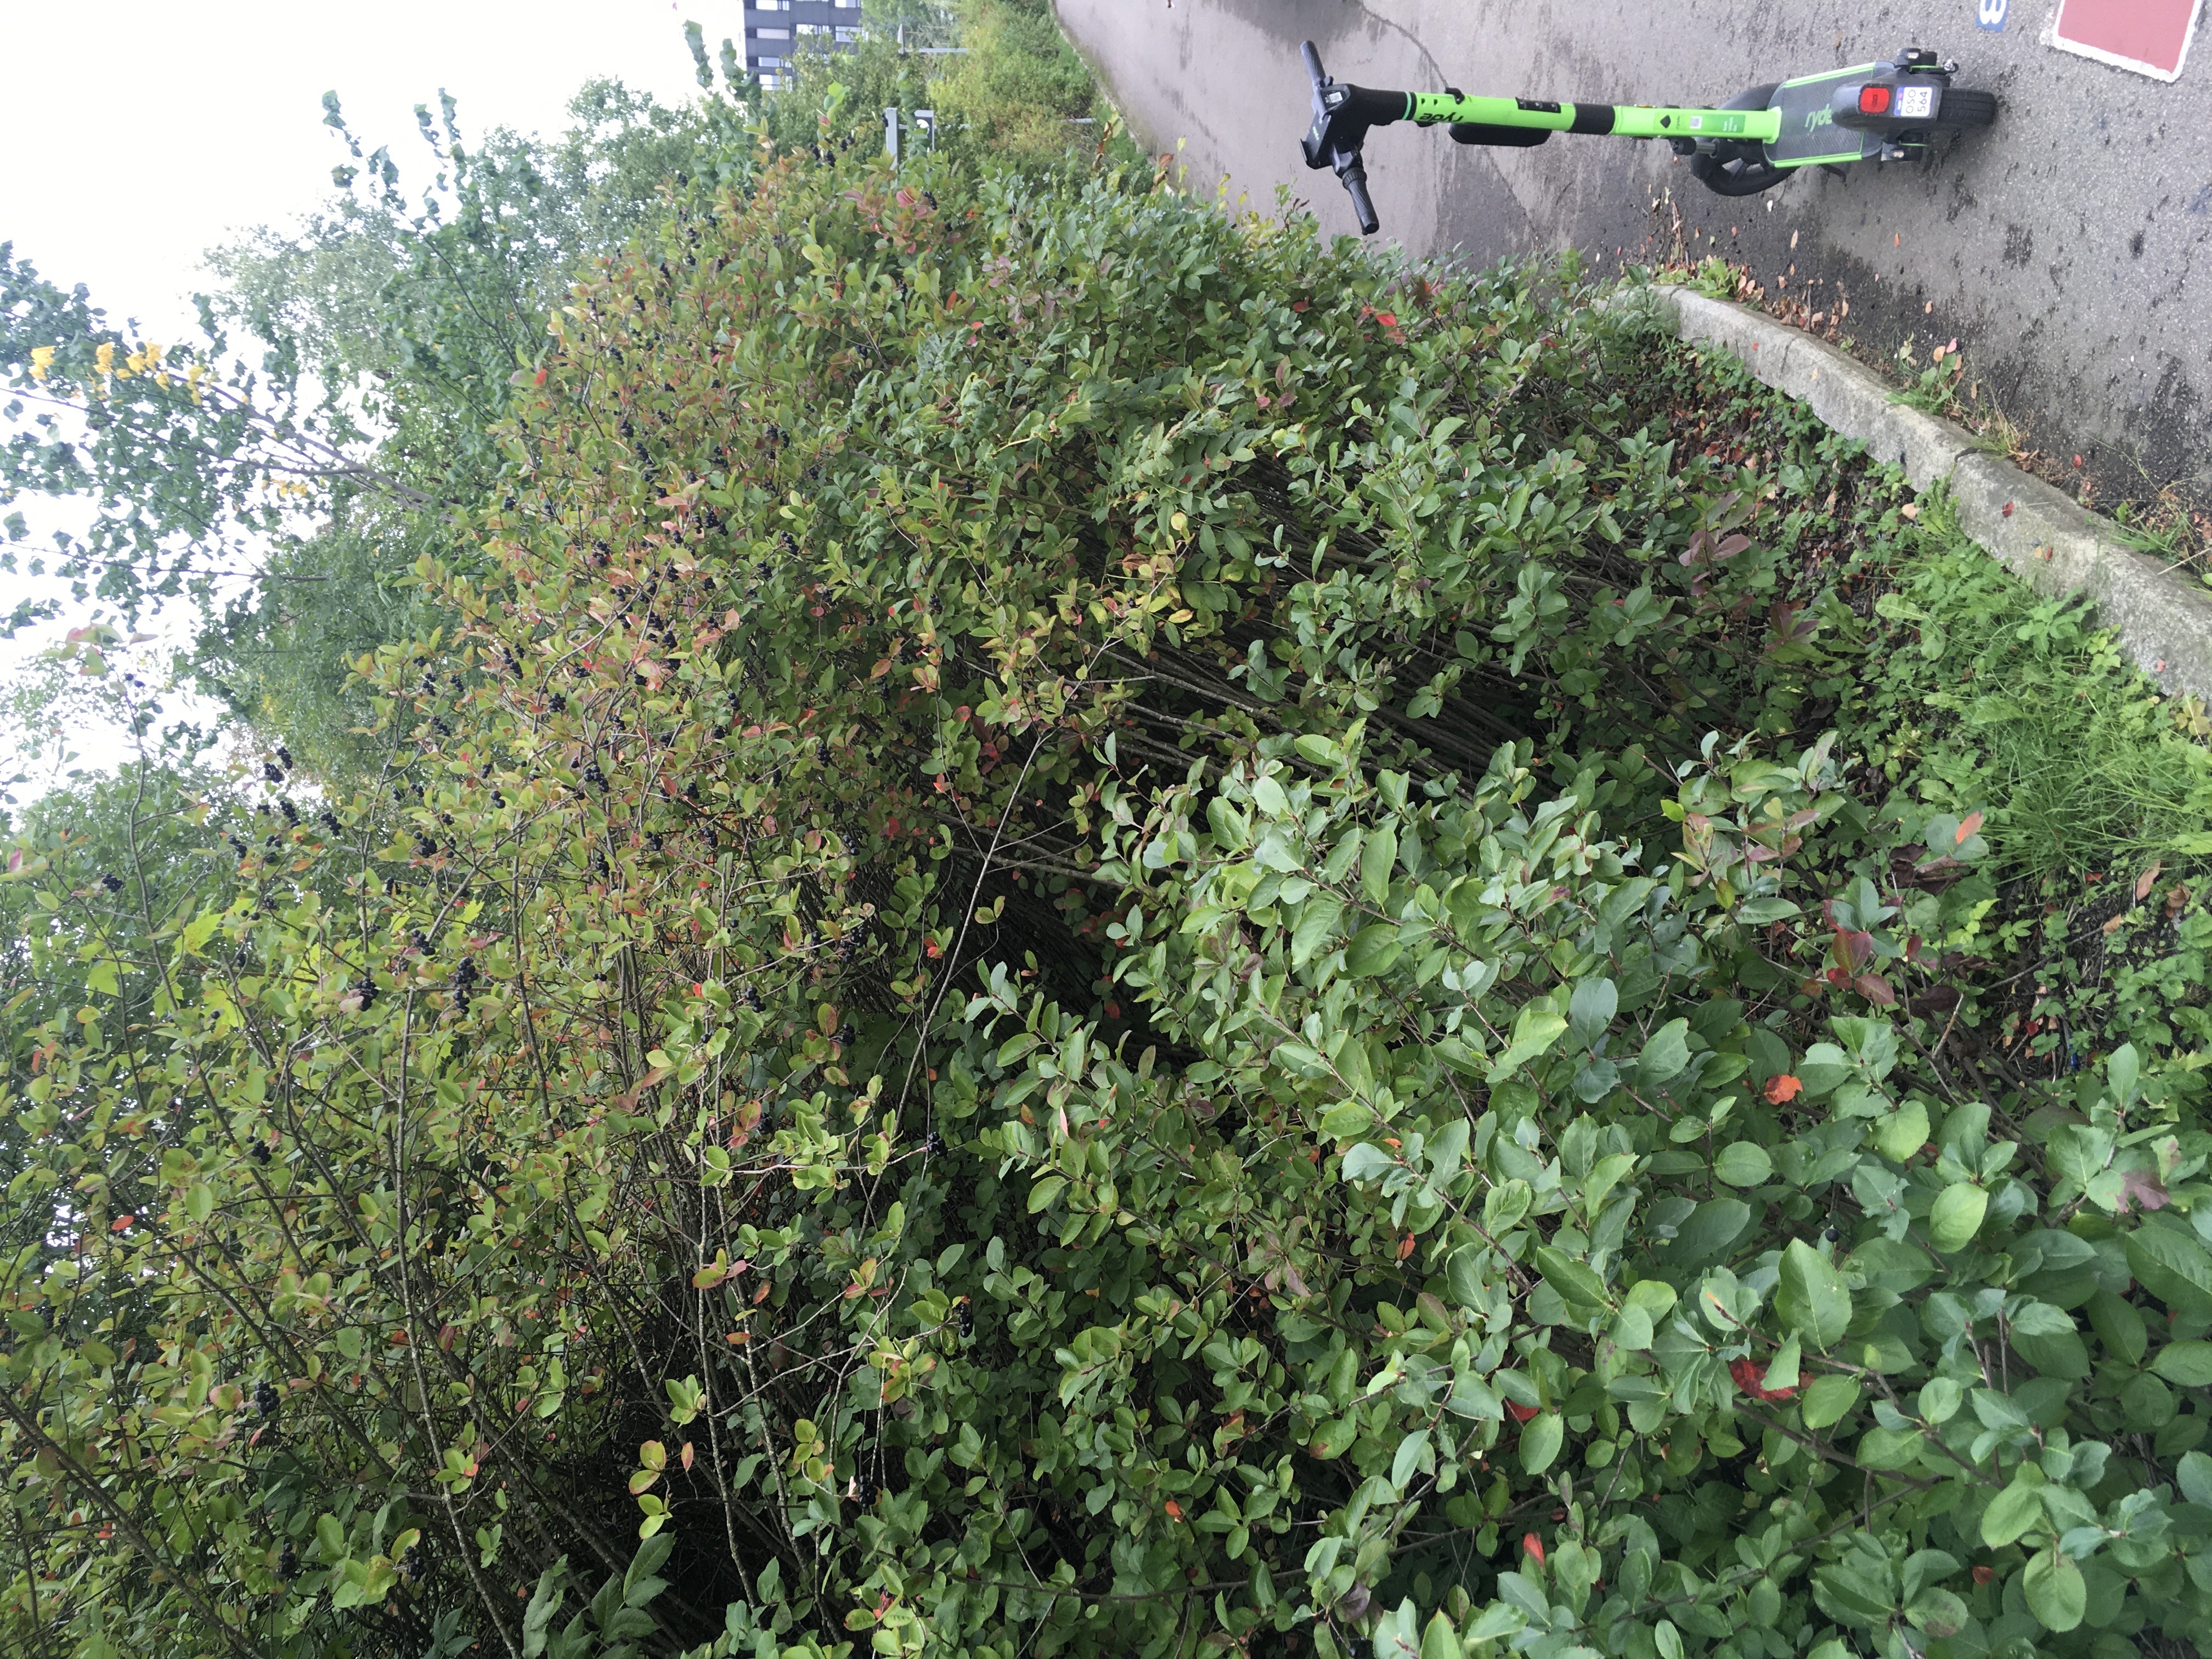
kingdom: Plantae
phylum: Tracheophyta
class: Magnoliopsida
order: Rosales
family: Rosaceae
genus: Aronia
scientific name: Aronia melanocarpa
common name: svartsurbær
